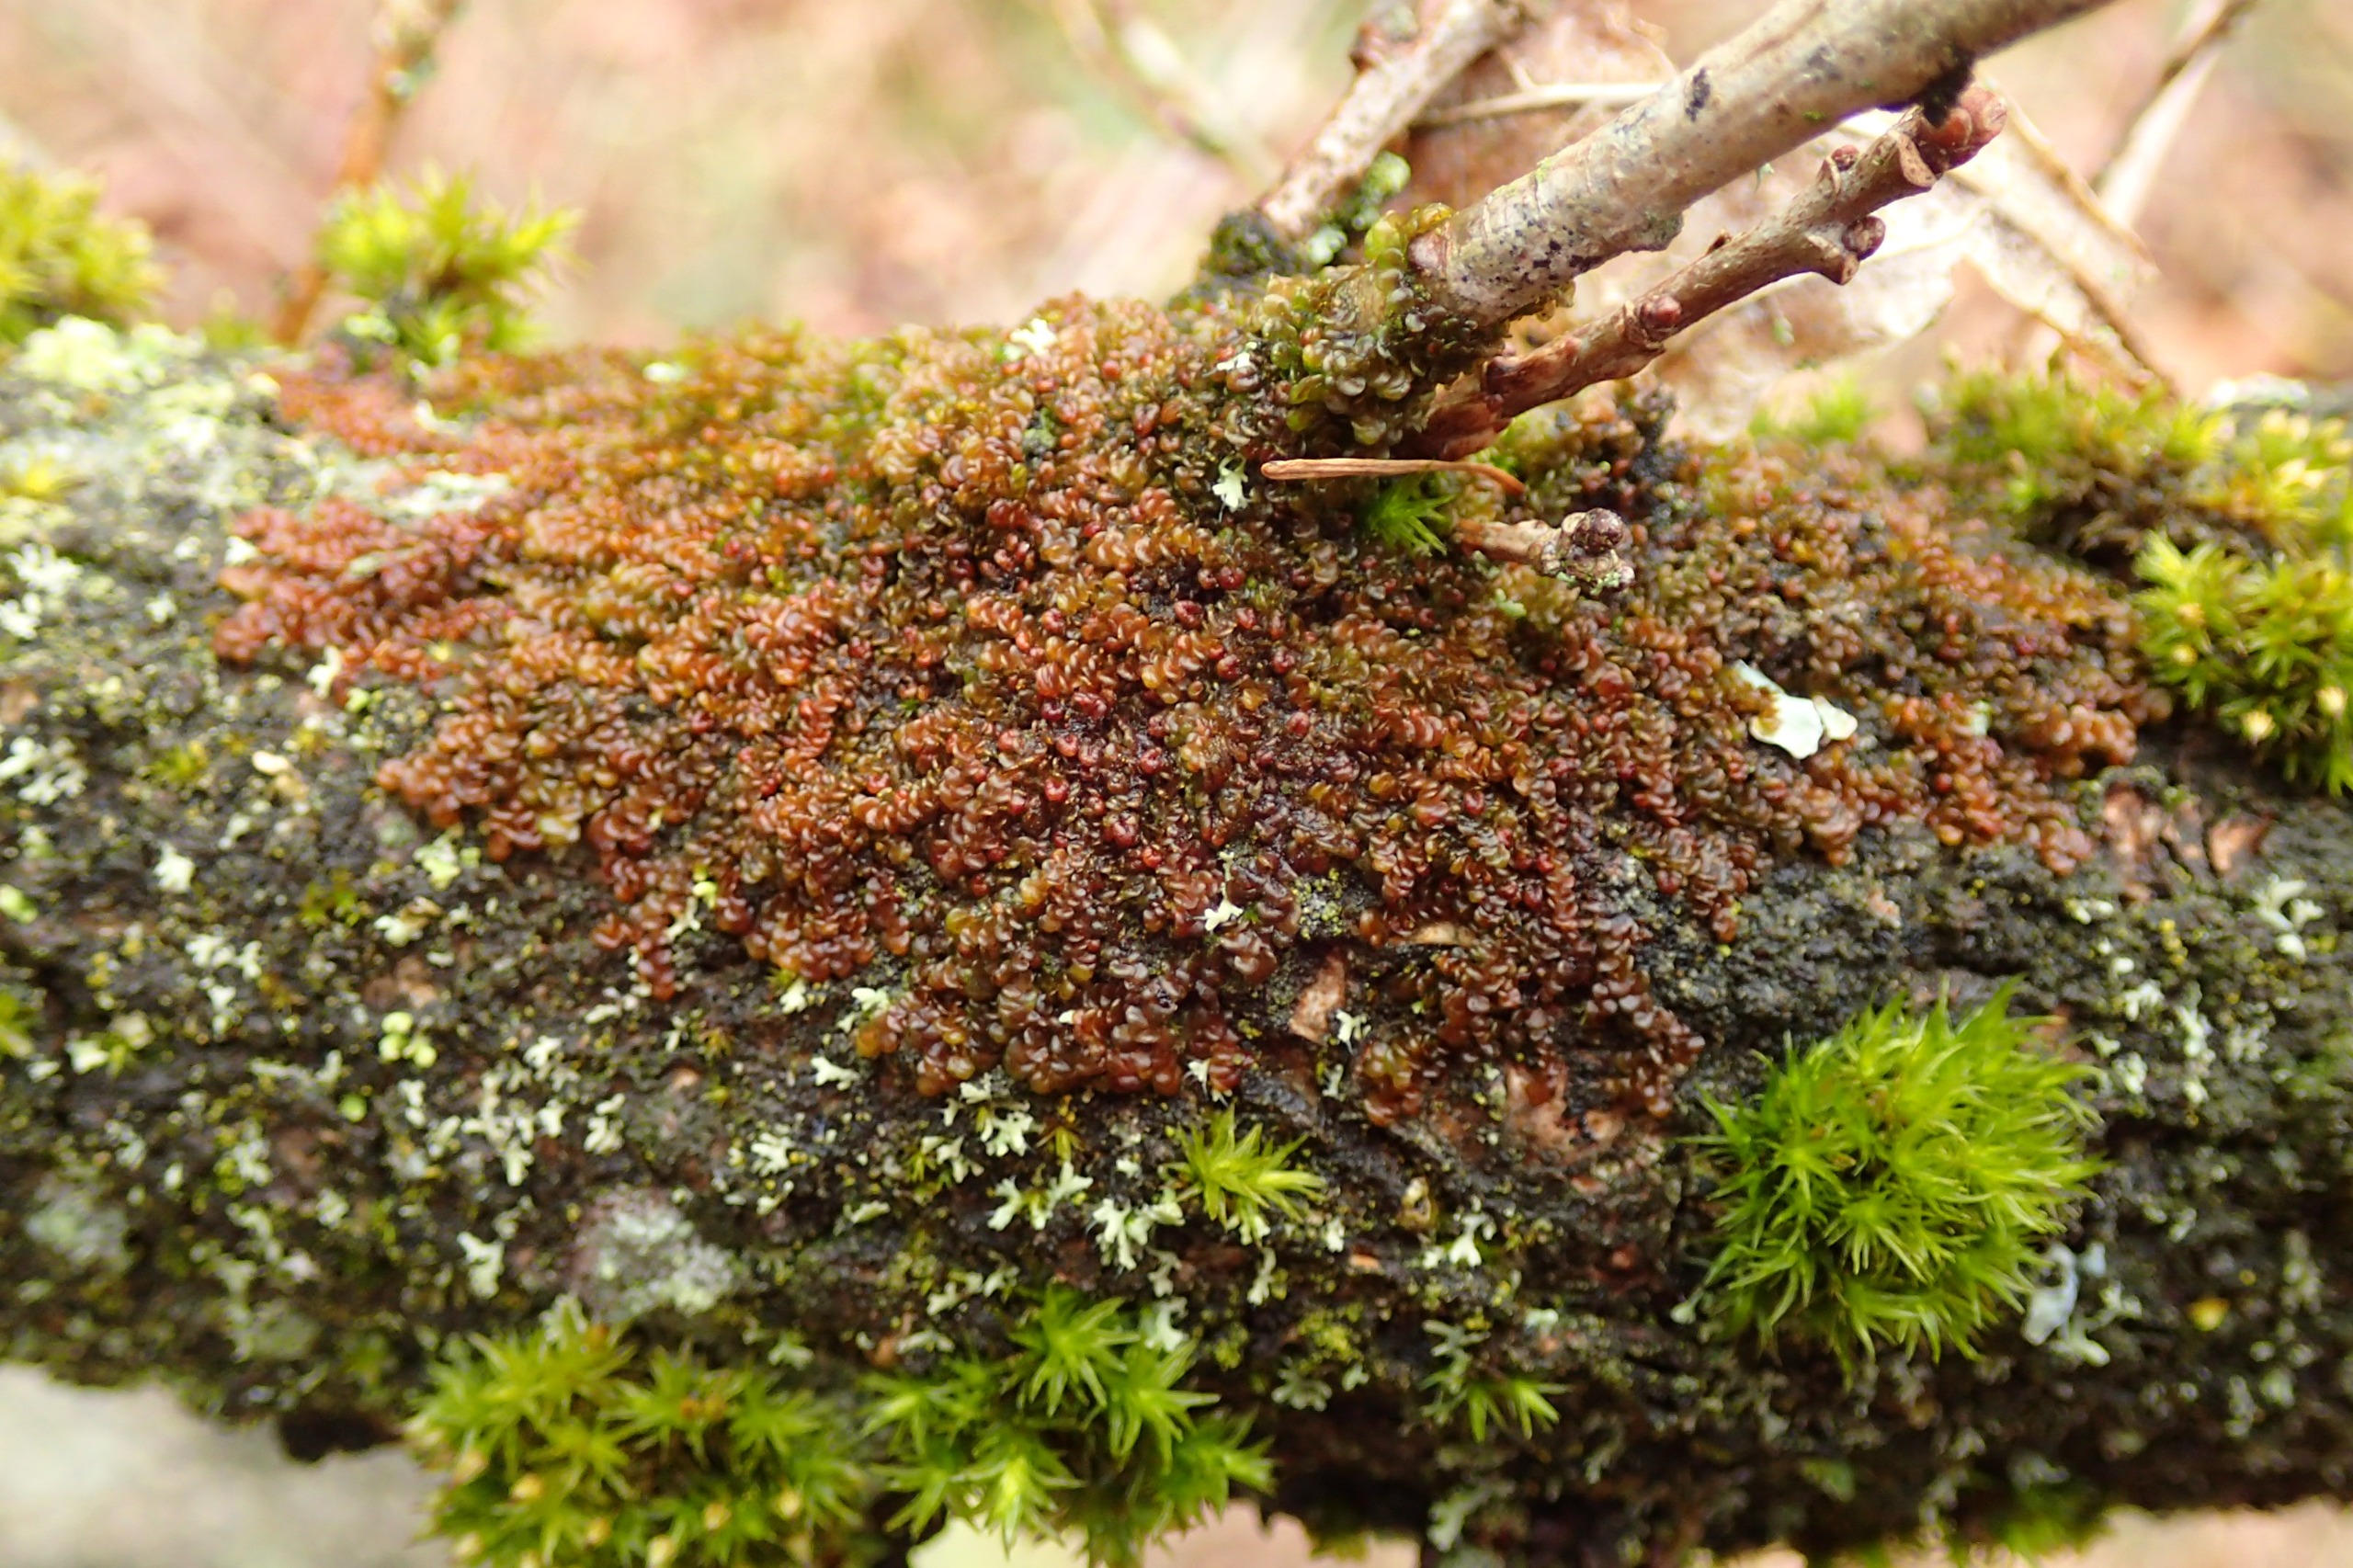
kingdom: Plantae
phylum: Marchantiophyta
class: Jungermanniopsida
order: Porellales
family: Frullaniaceae
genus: Frullania
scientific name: Frullania dilatata
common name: Mat bronzemos
